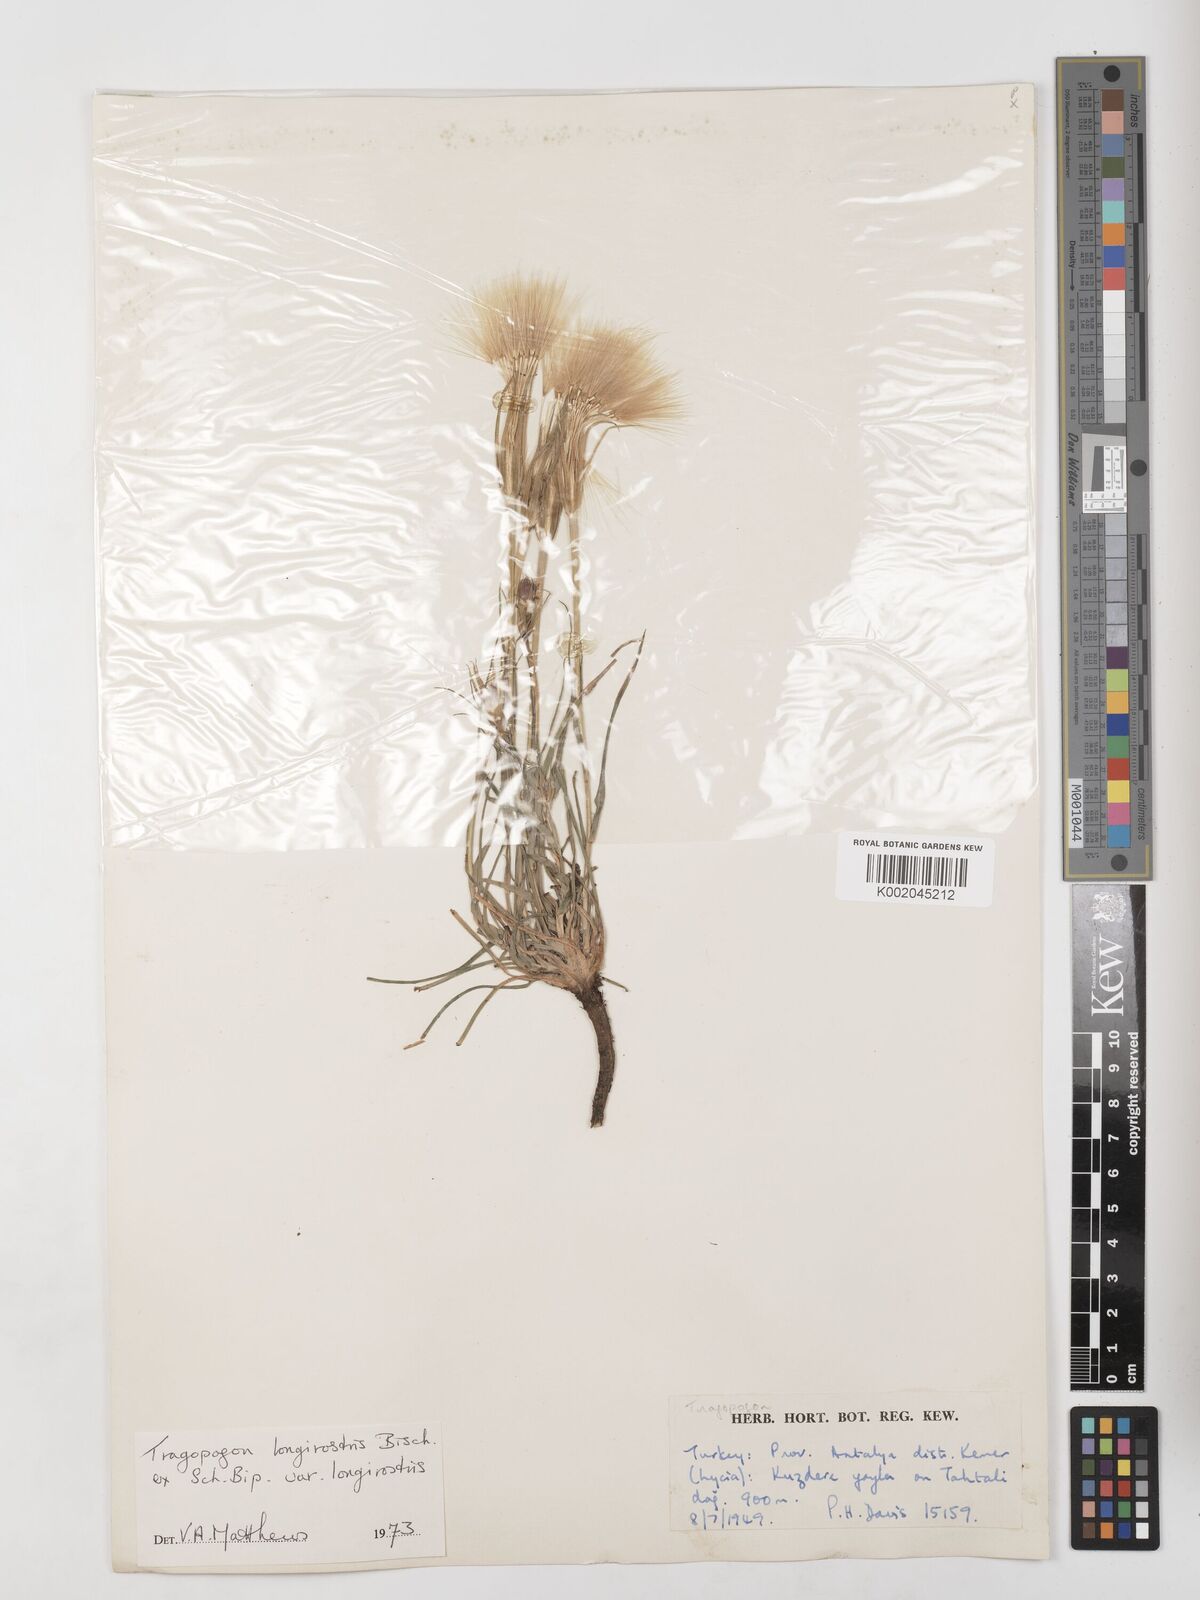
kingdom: Plantae
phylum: Tracheophyta
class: Magnoliopsida
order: Asterales
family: Asteraceae
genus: Tragopogon
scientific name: Tragopogon coelesyriacus
